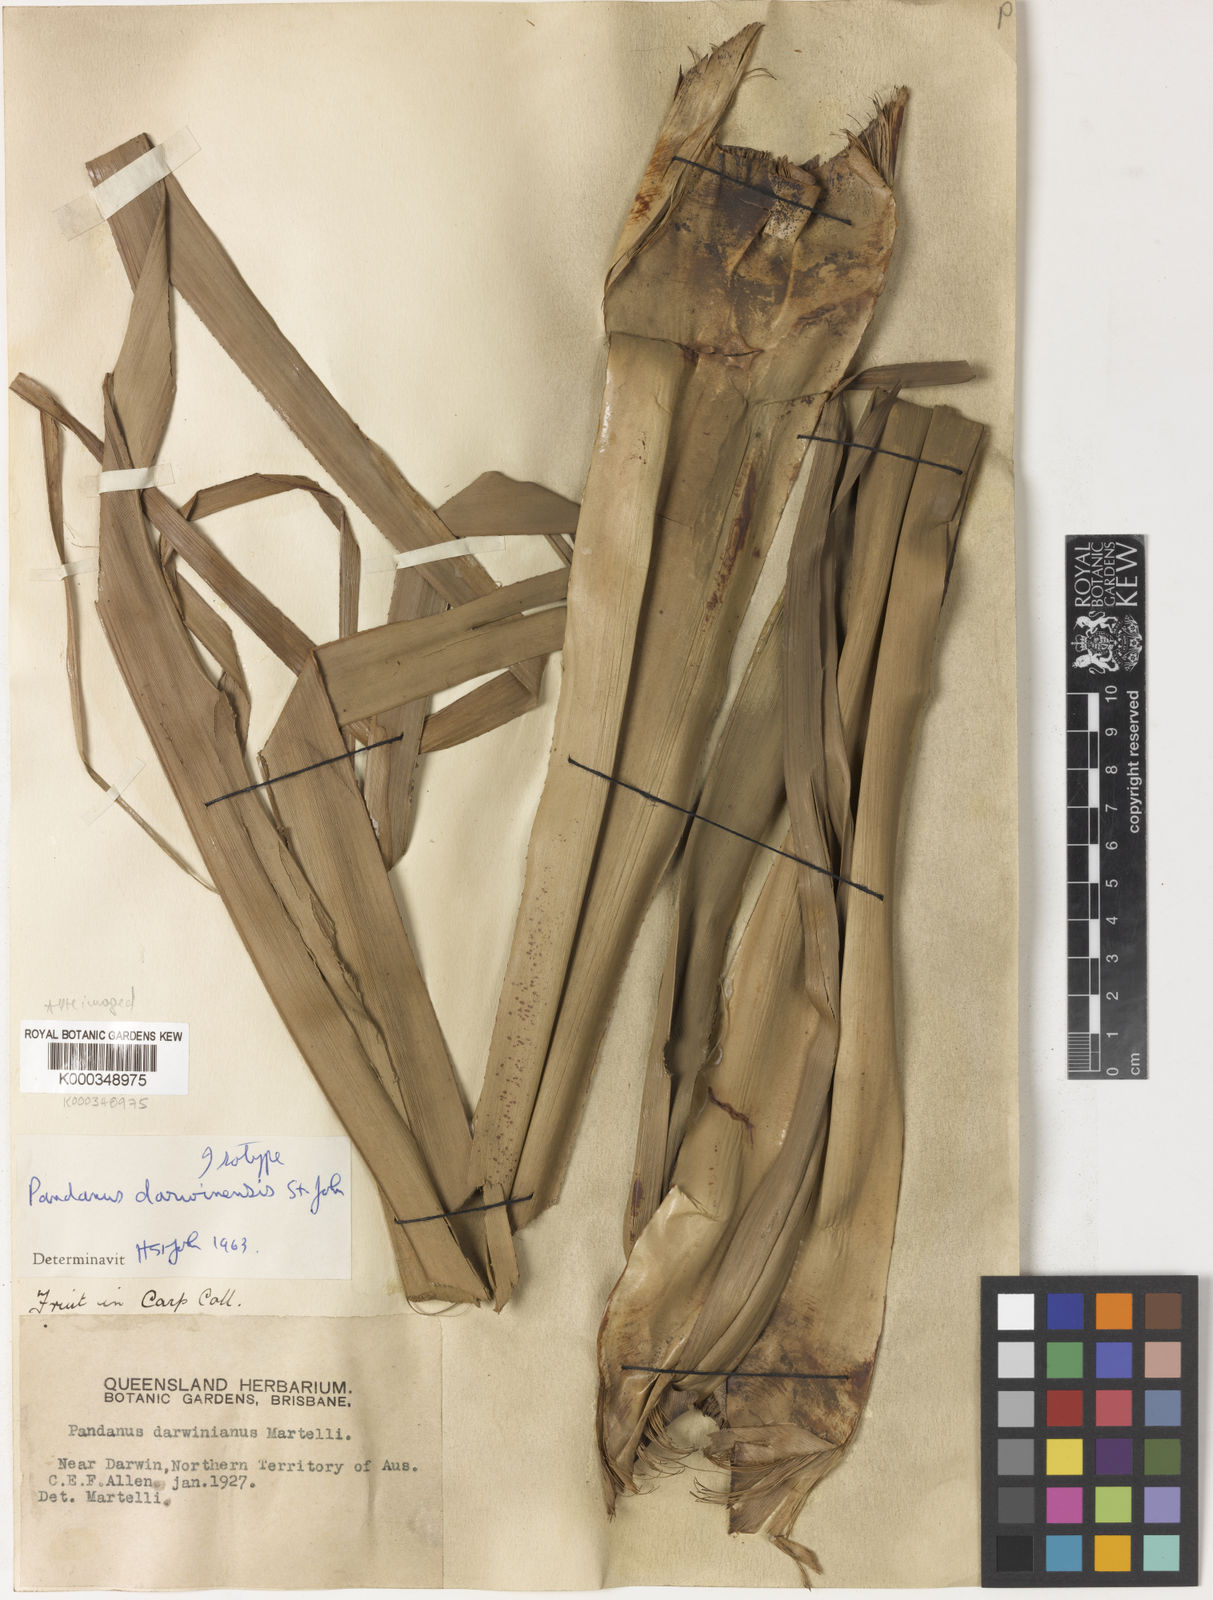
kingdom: Plantae
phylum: Tracheophyta
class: Liliopsida
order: Pandanales
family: Pandanaceae
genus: Pandanus
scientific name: Pandanus darwinensis
